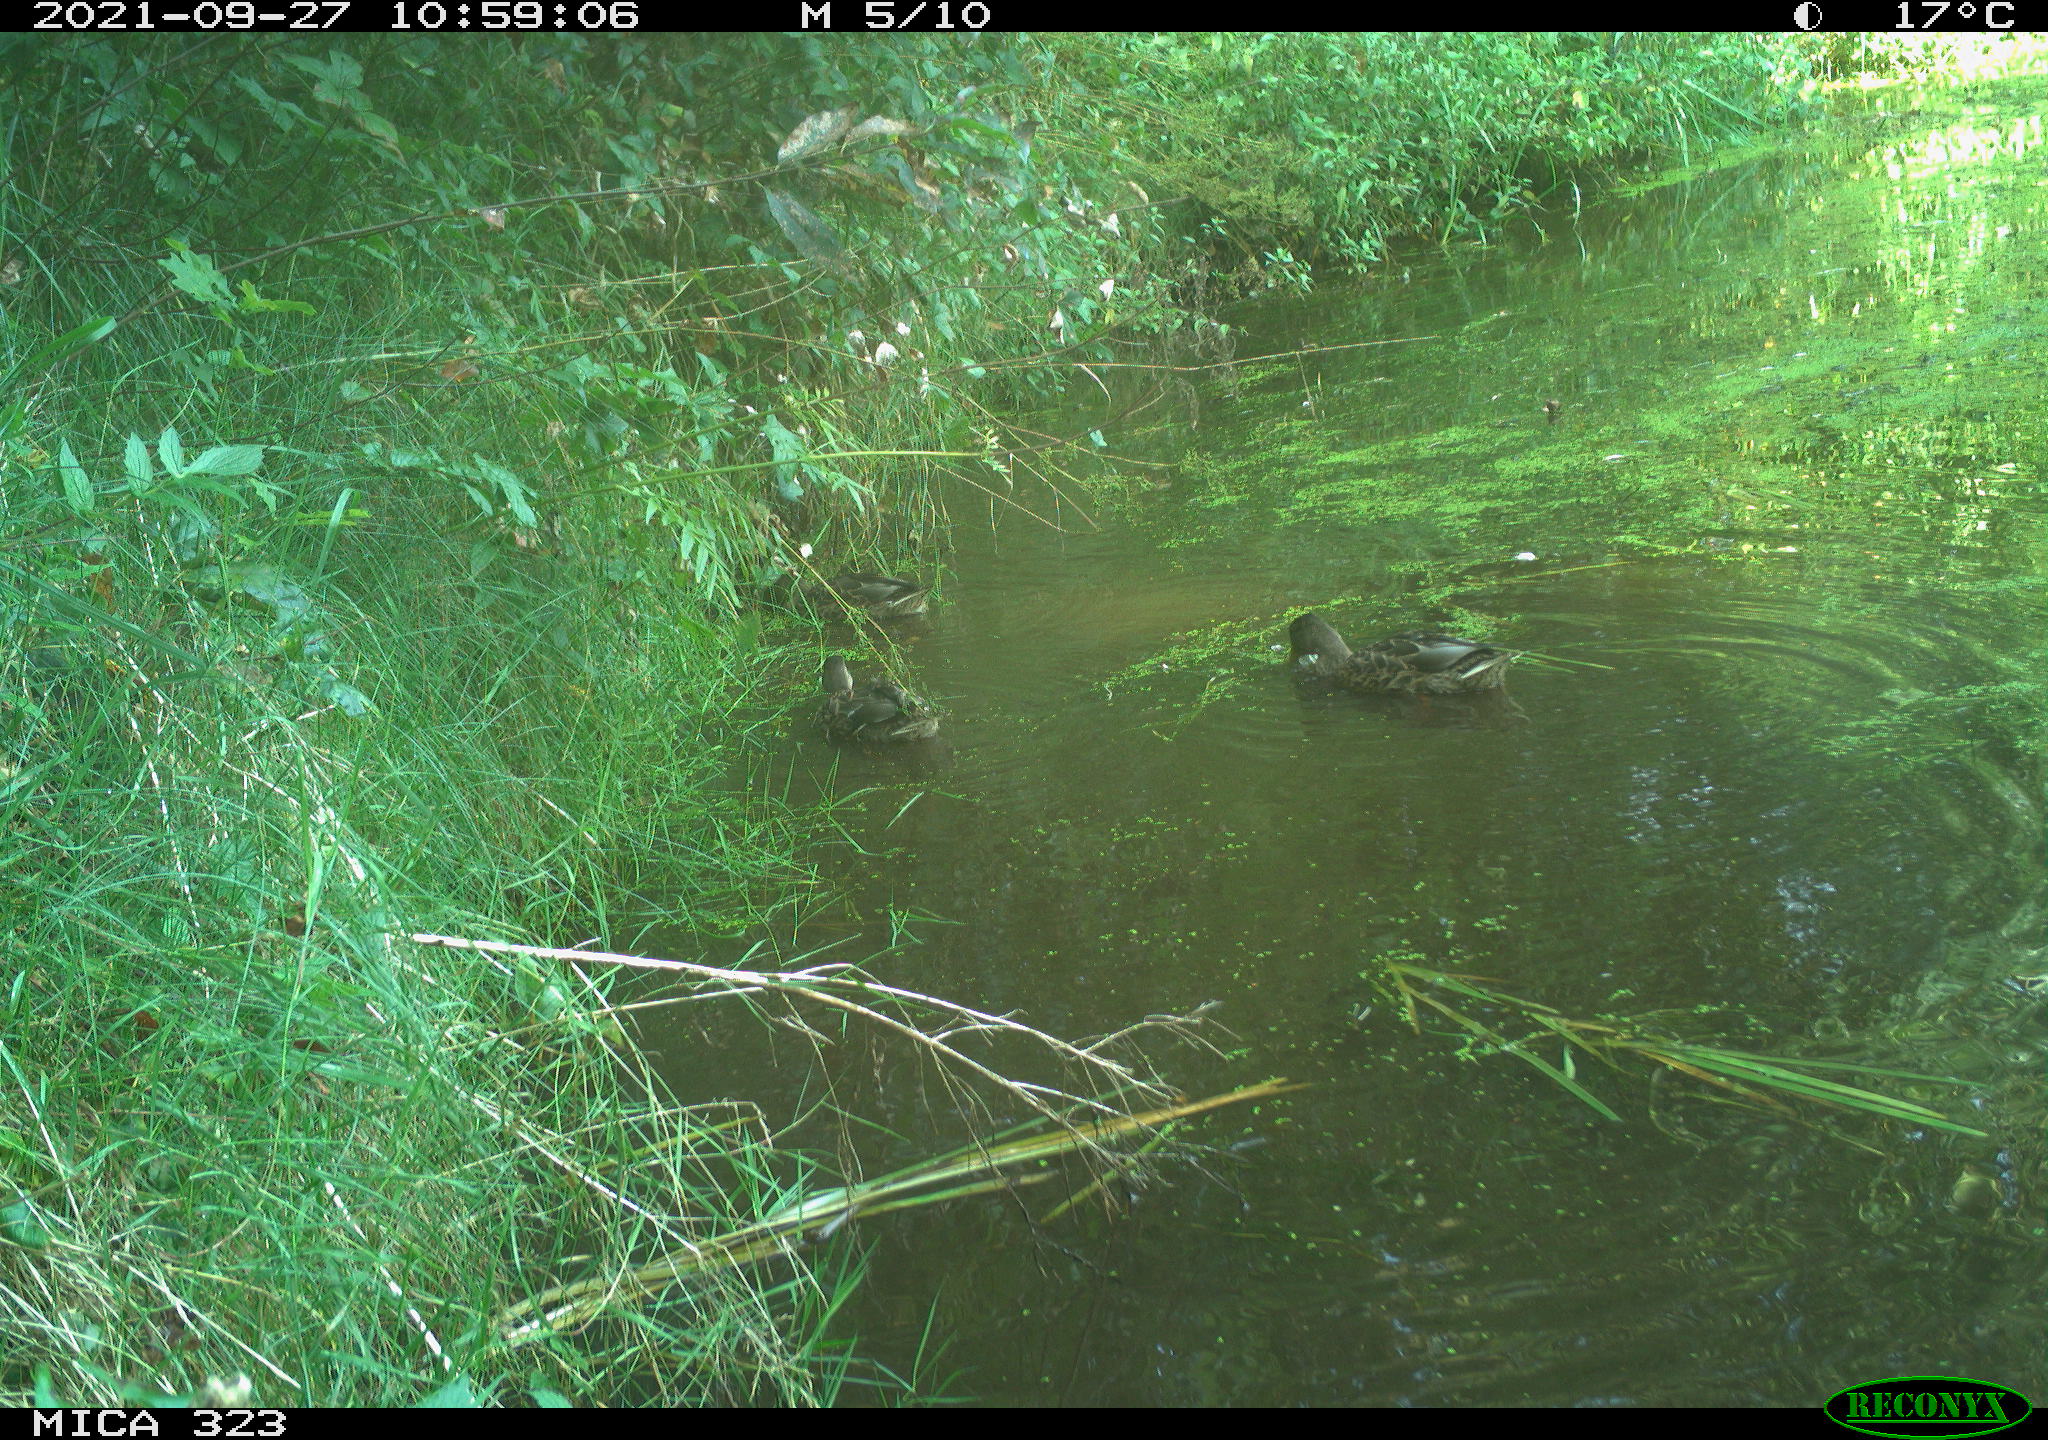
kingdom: Animalia
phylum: Chordata
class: Aves
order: Anseriformes
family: Anatidae
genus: Anas
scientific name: Anas platyrhynchos
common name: Mallard
